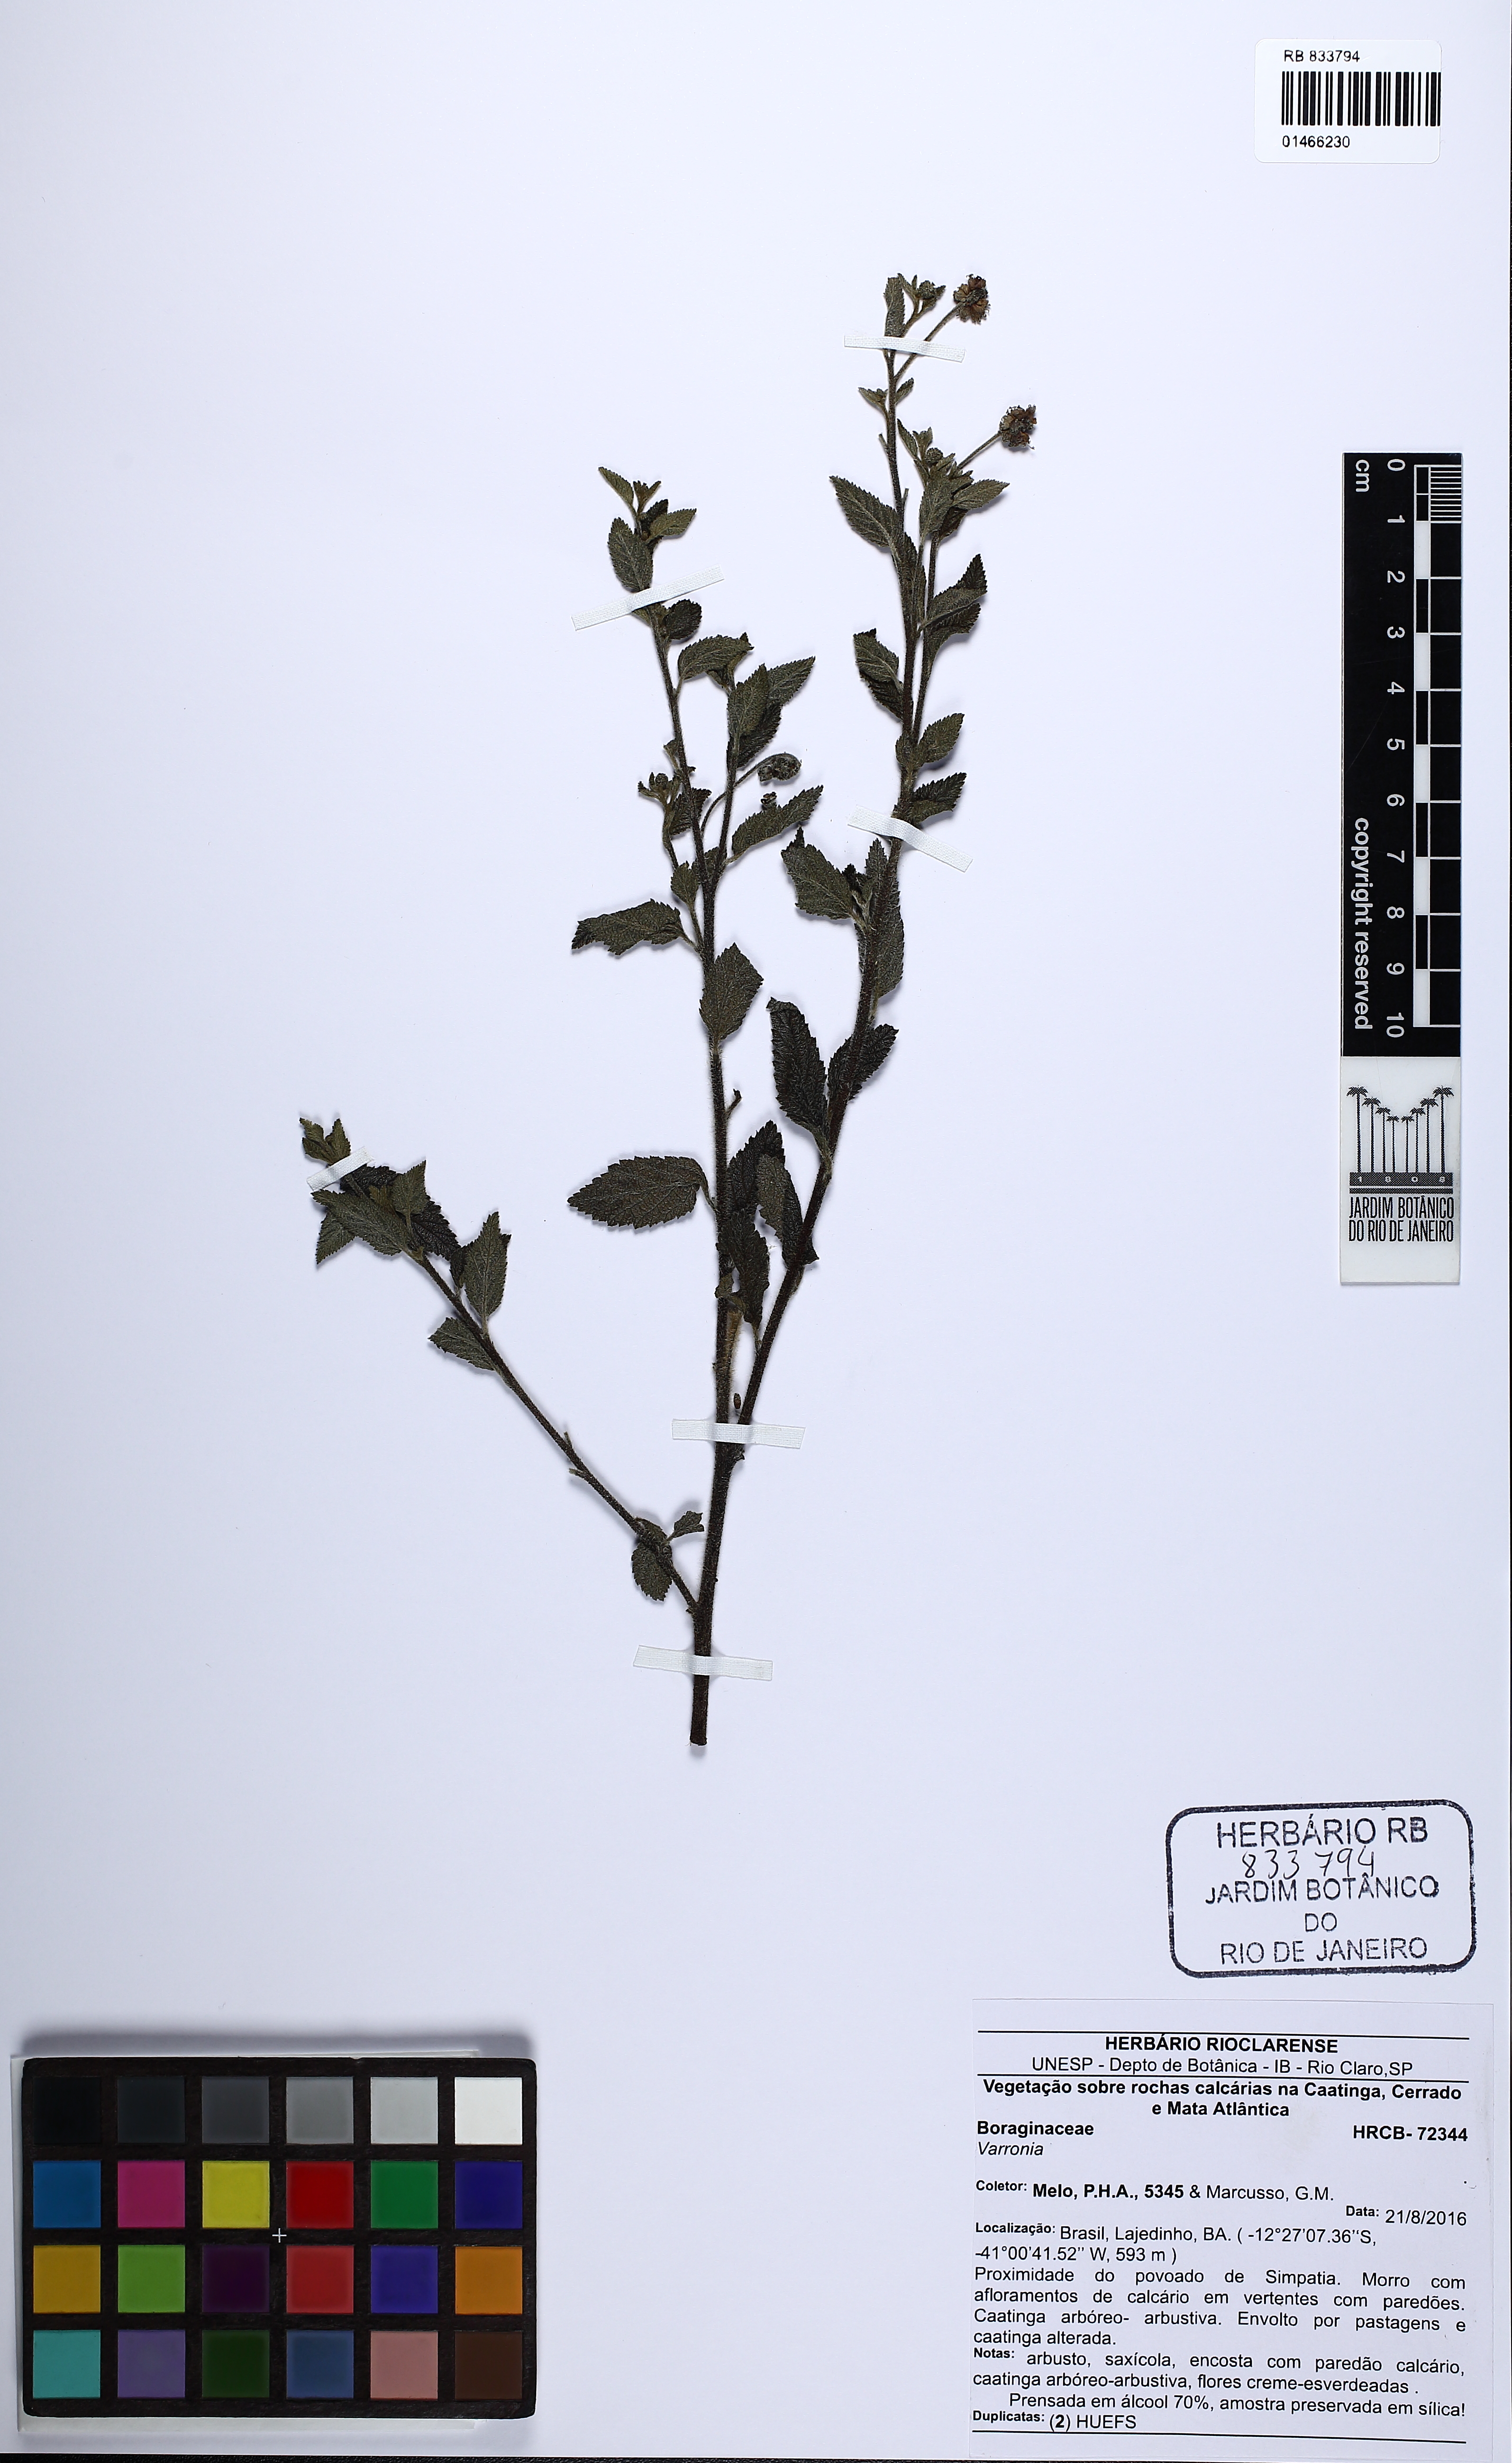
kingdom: Plantae
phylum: Tracheophyta
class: Magnoliopsida
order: Boraginales
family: Cordiaceae
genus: Varronia
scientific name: Varronia
